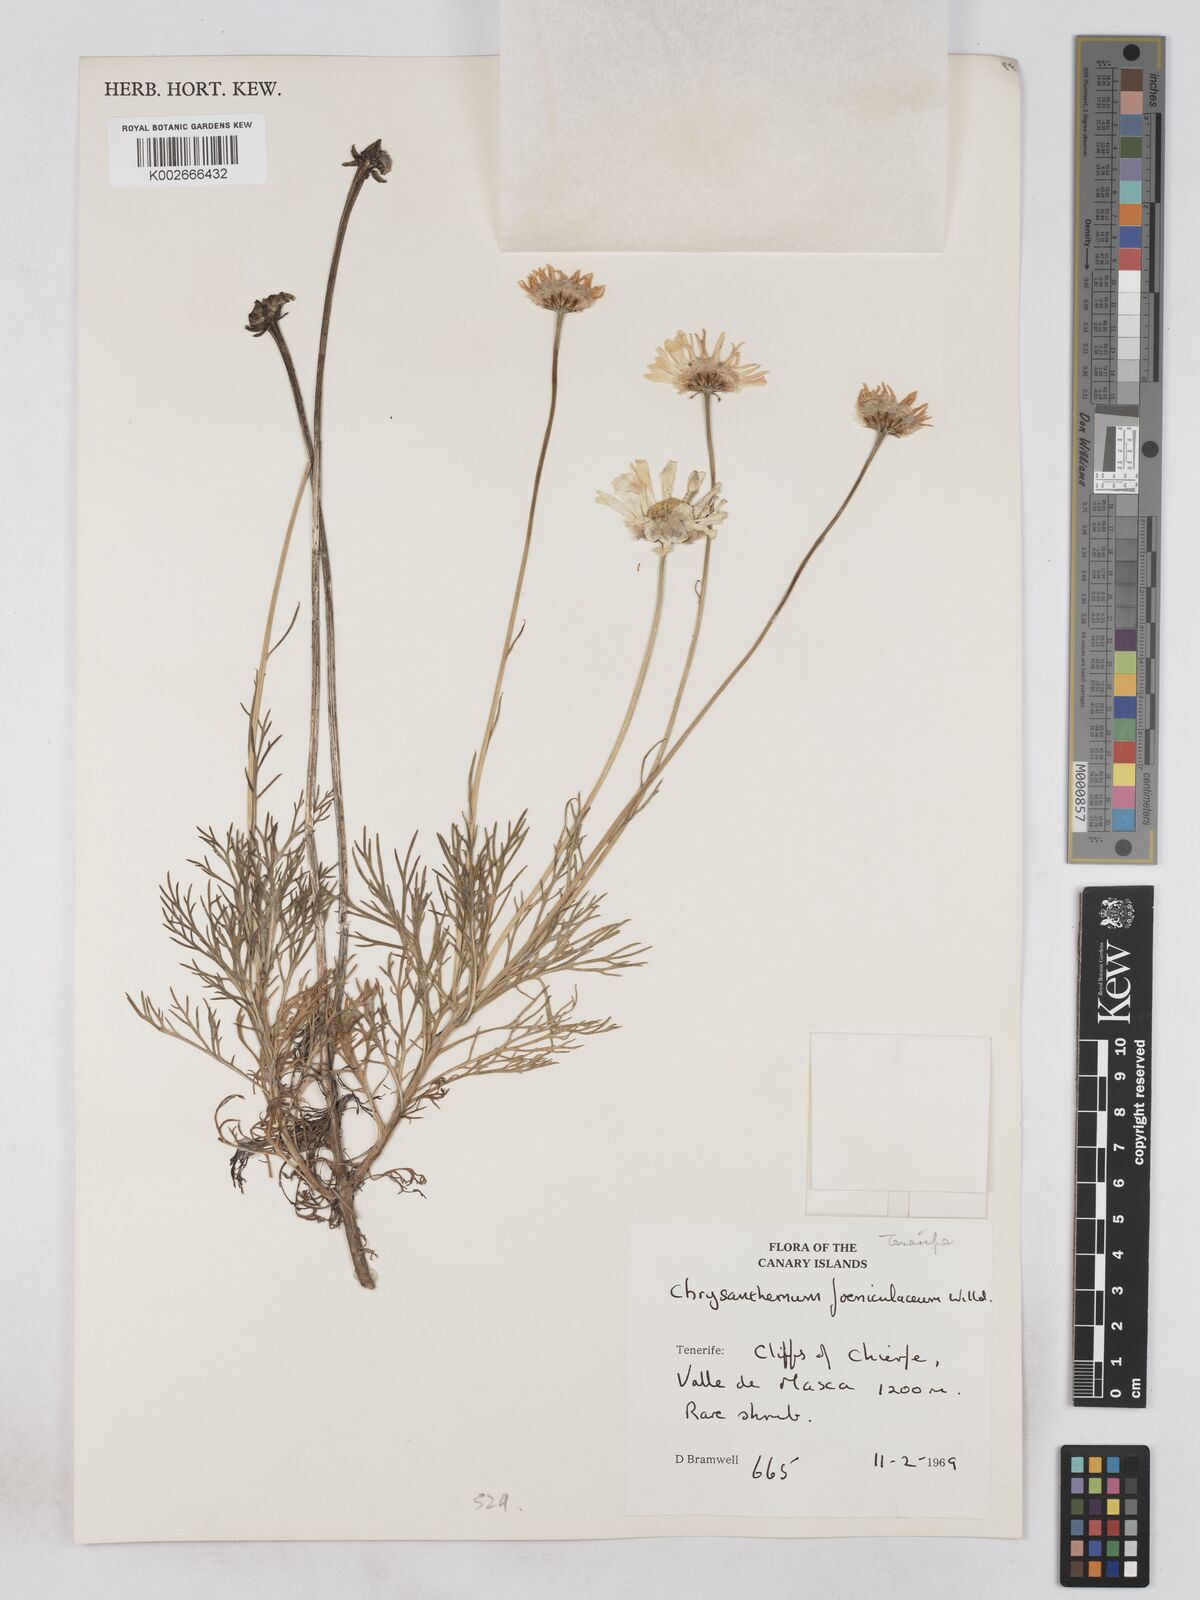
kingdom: Plantae
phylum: Tracheophyta
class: Magnoliopsida
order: Asterales
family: Asteraceae
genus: Argyranthemum
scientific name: Argyranthemum foeniculaceum
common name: Canary island marguerite
